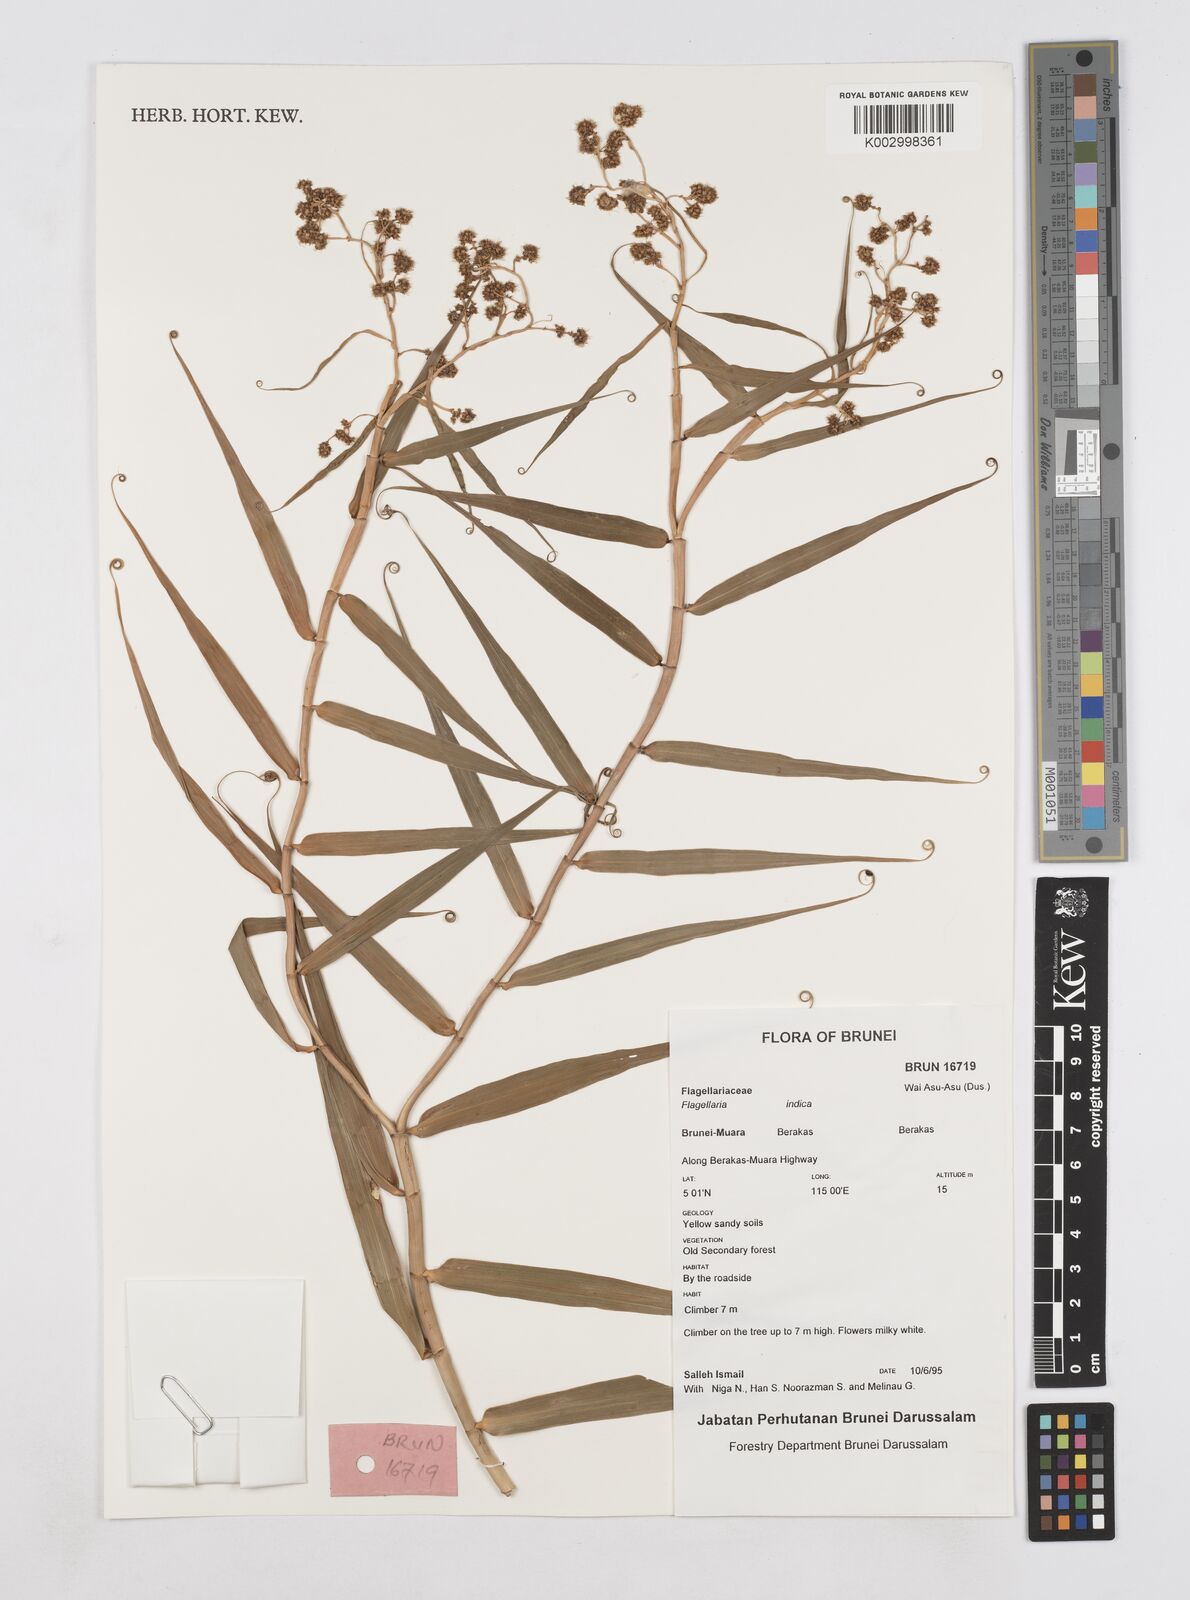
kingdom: Plantae
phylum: Tracheophyta
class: Liliopsida
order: Poales
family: Flagellariaceae
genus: Flagellaria
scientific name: Flagellaria indica
